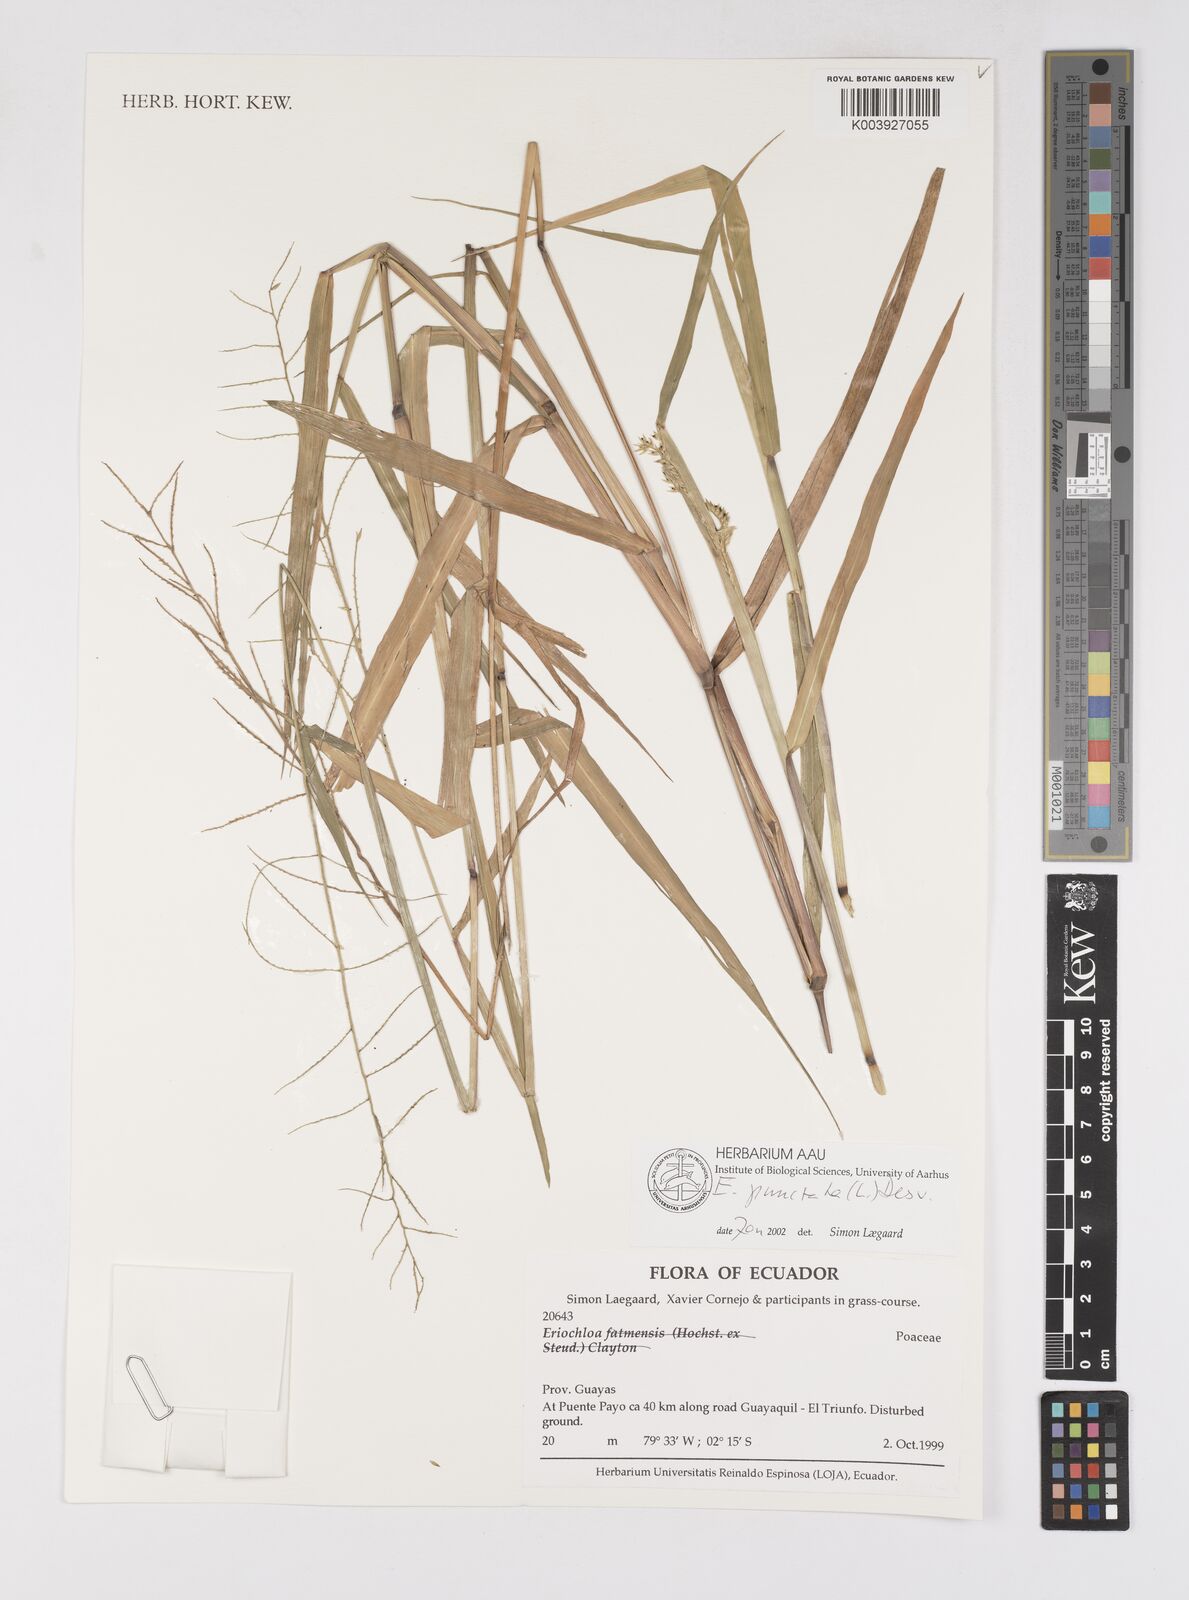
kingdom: Plantae
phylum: Tracheophyta
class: Liliopsida
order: Poales
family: Poaceae
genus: Eriochloa
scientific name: Eriochloa punctata
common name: Louisiana cupgrass
